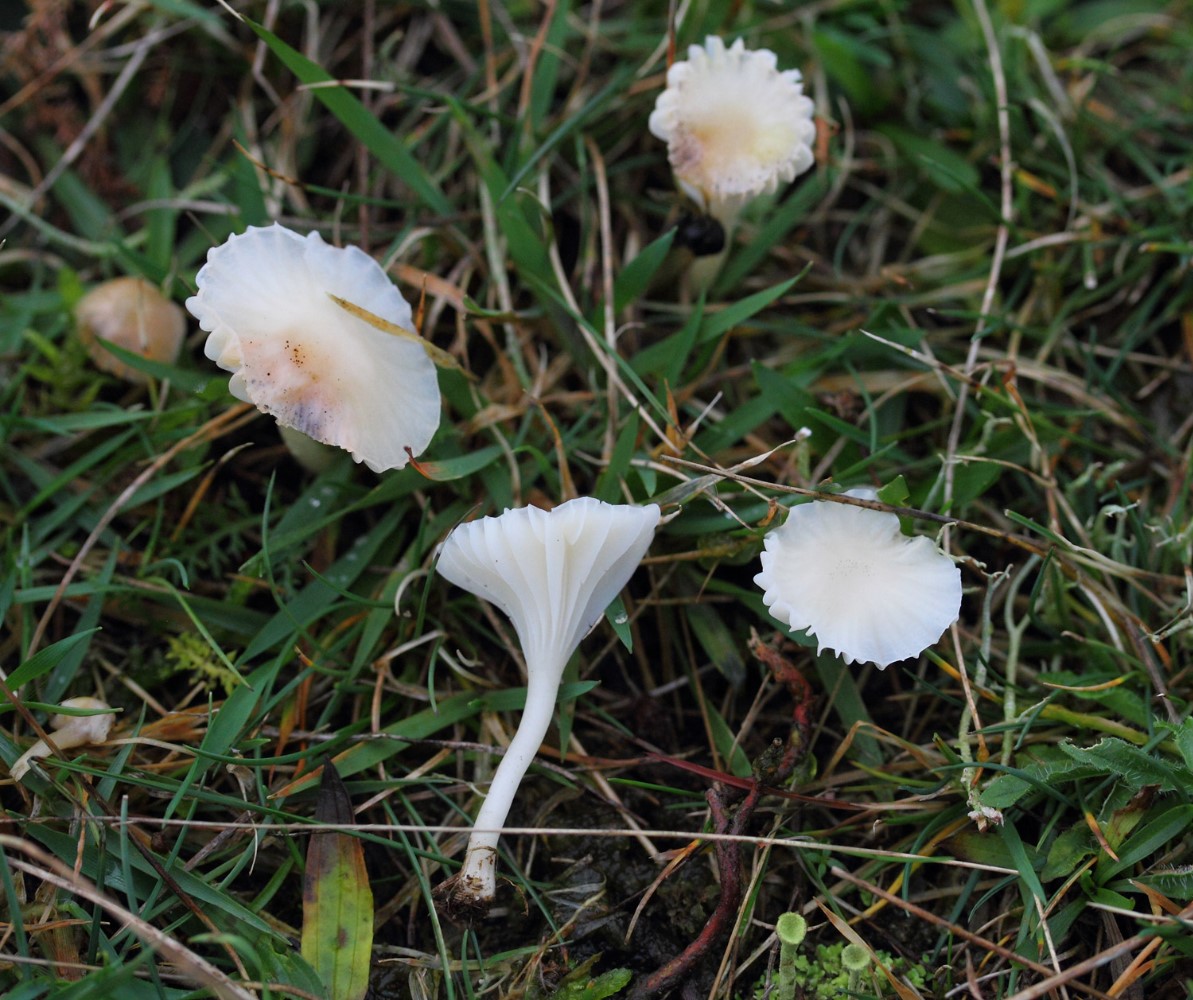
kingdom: Fungi
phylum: Basidiomycota
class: Agaricomycetes
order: Agaricales
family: Hygrophoraceae
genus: Cuphophyllus
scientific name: Cuphophyllus virgineus
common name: snehvid vokshat
